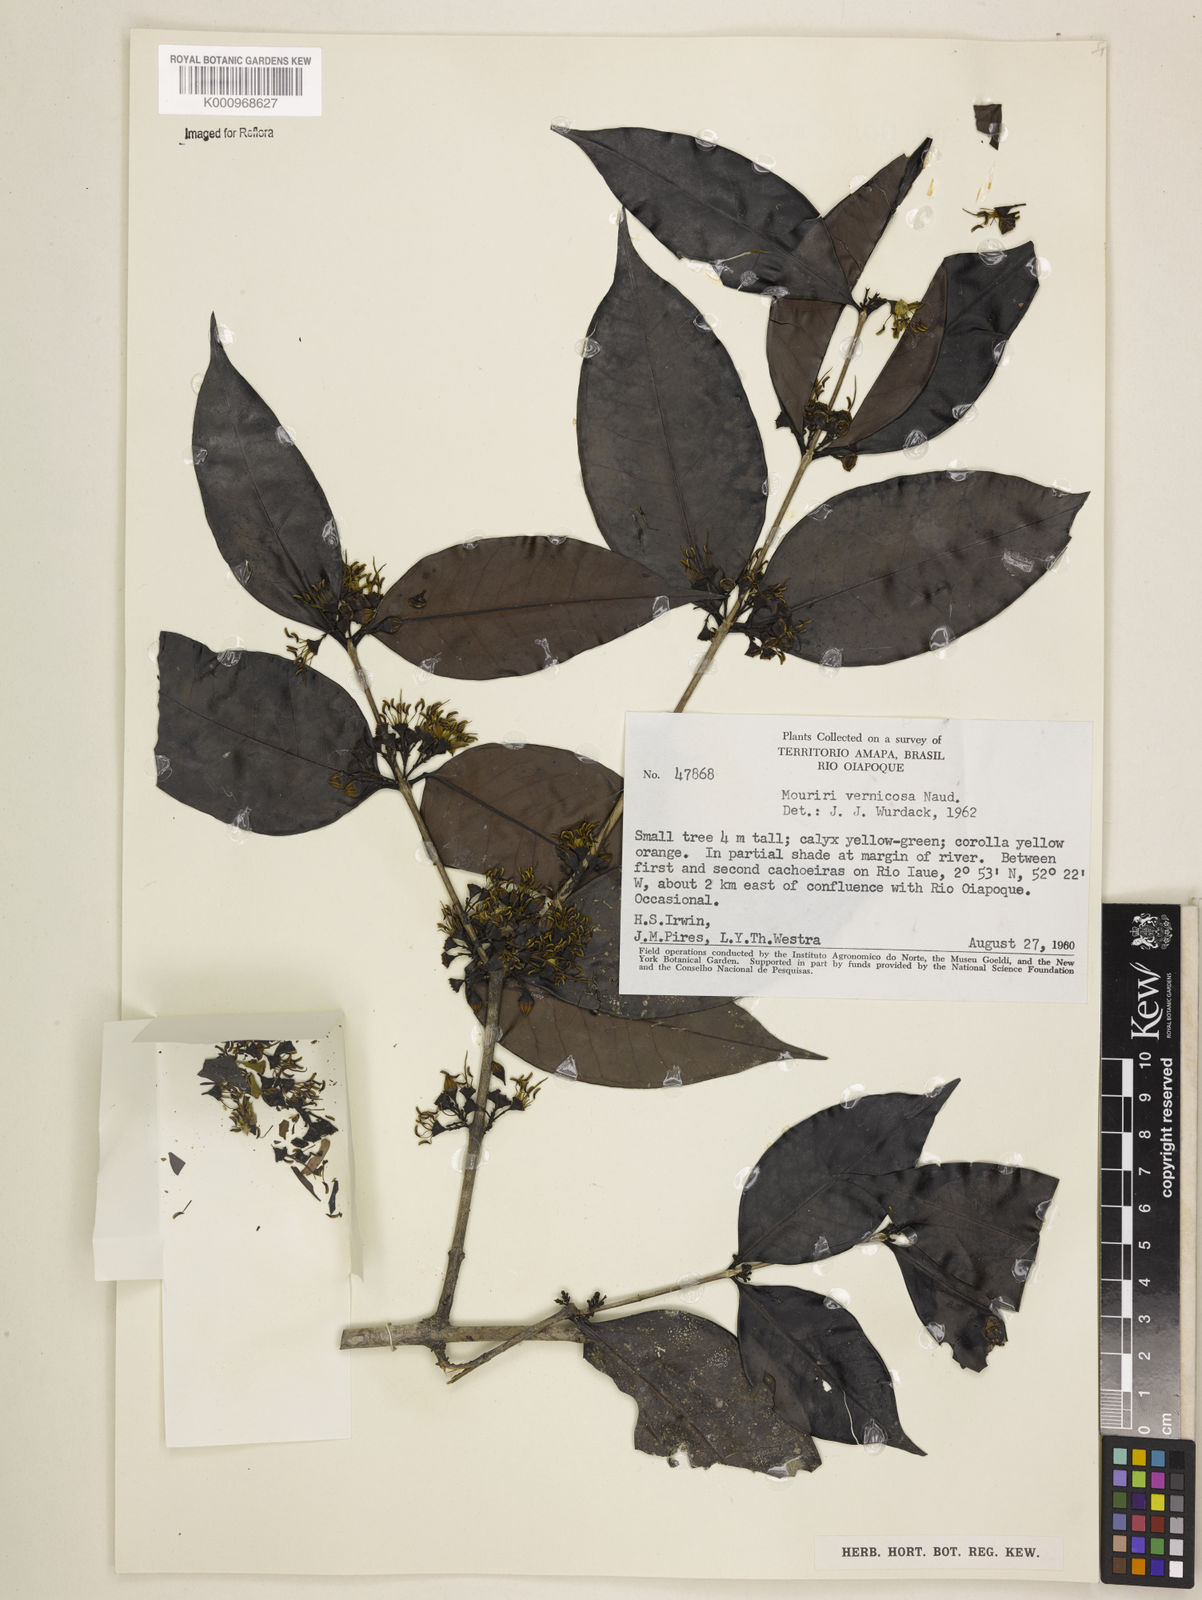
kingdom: Plantae
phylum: Tracheophyta
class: Magnoliopsida
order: Myrtales
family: Melastomataceae
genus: Mouriri
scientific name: Mouriri vernicosa
